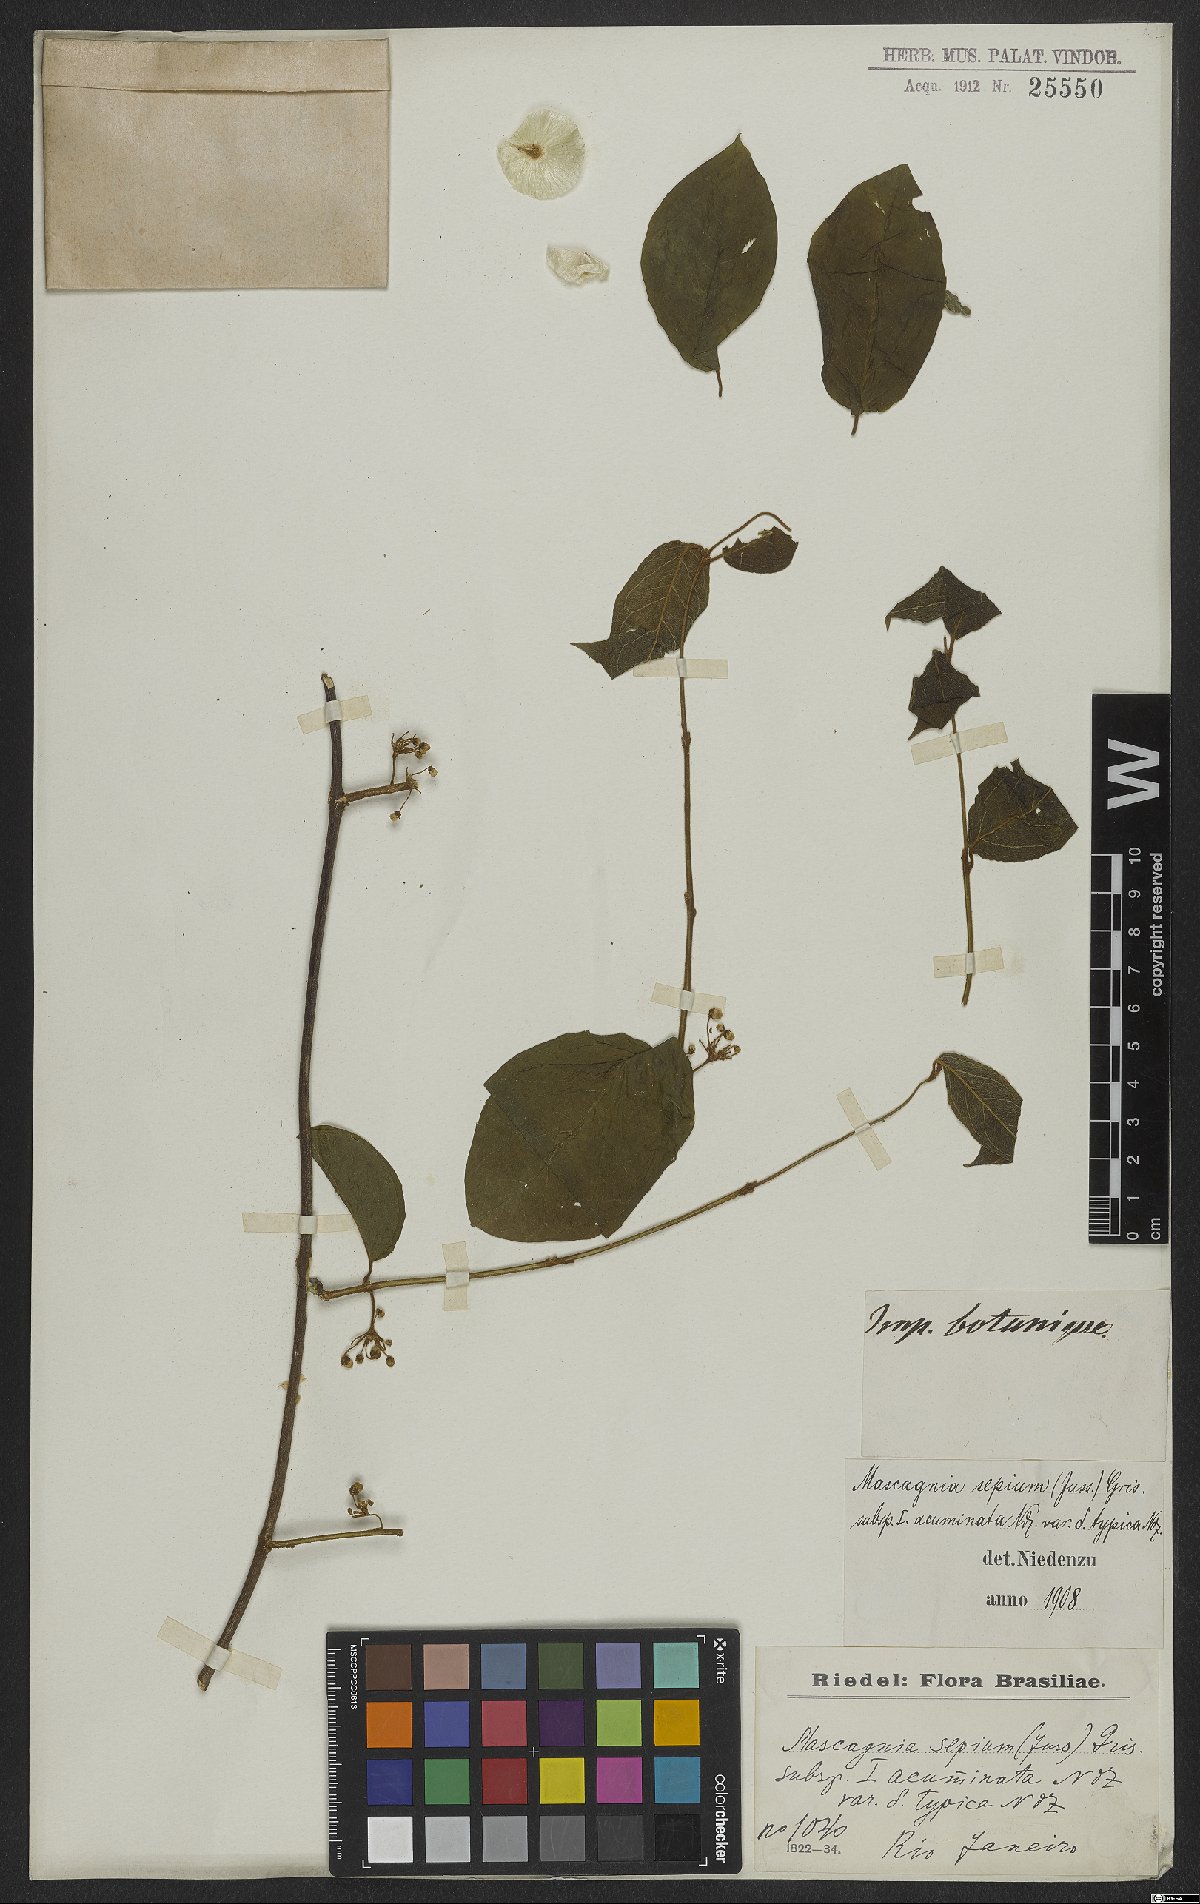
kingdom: Plantae
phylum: Tracheophyta
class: Magnoliopsida
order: Malpighiales
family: Malpighiaceae
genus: Mascagnia
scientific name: Mascagnia sepium
